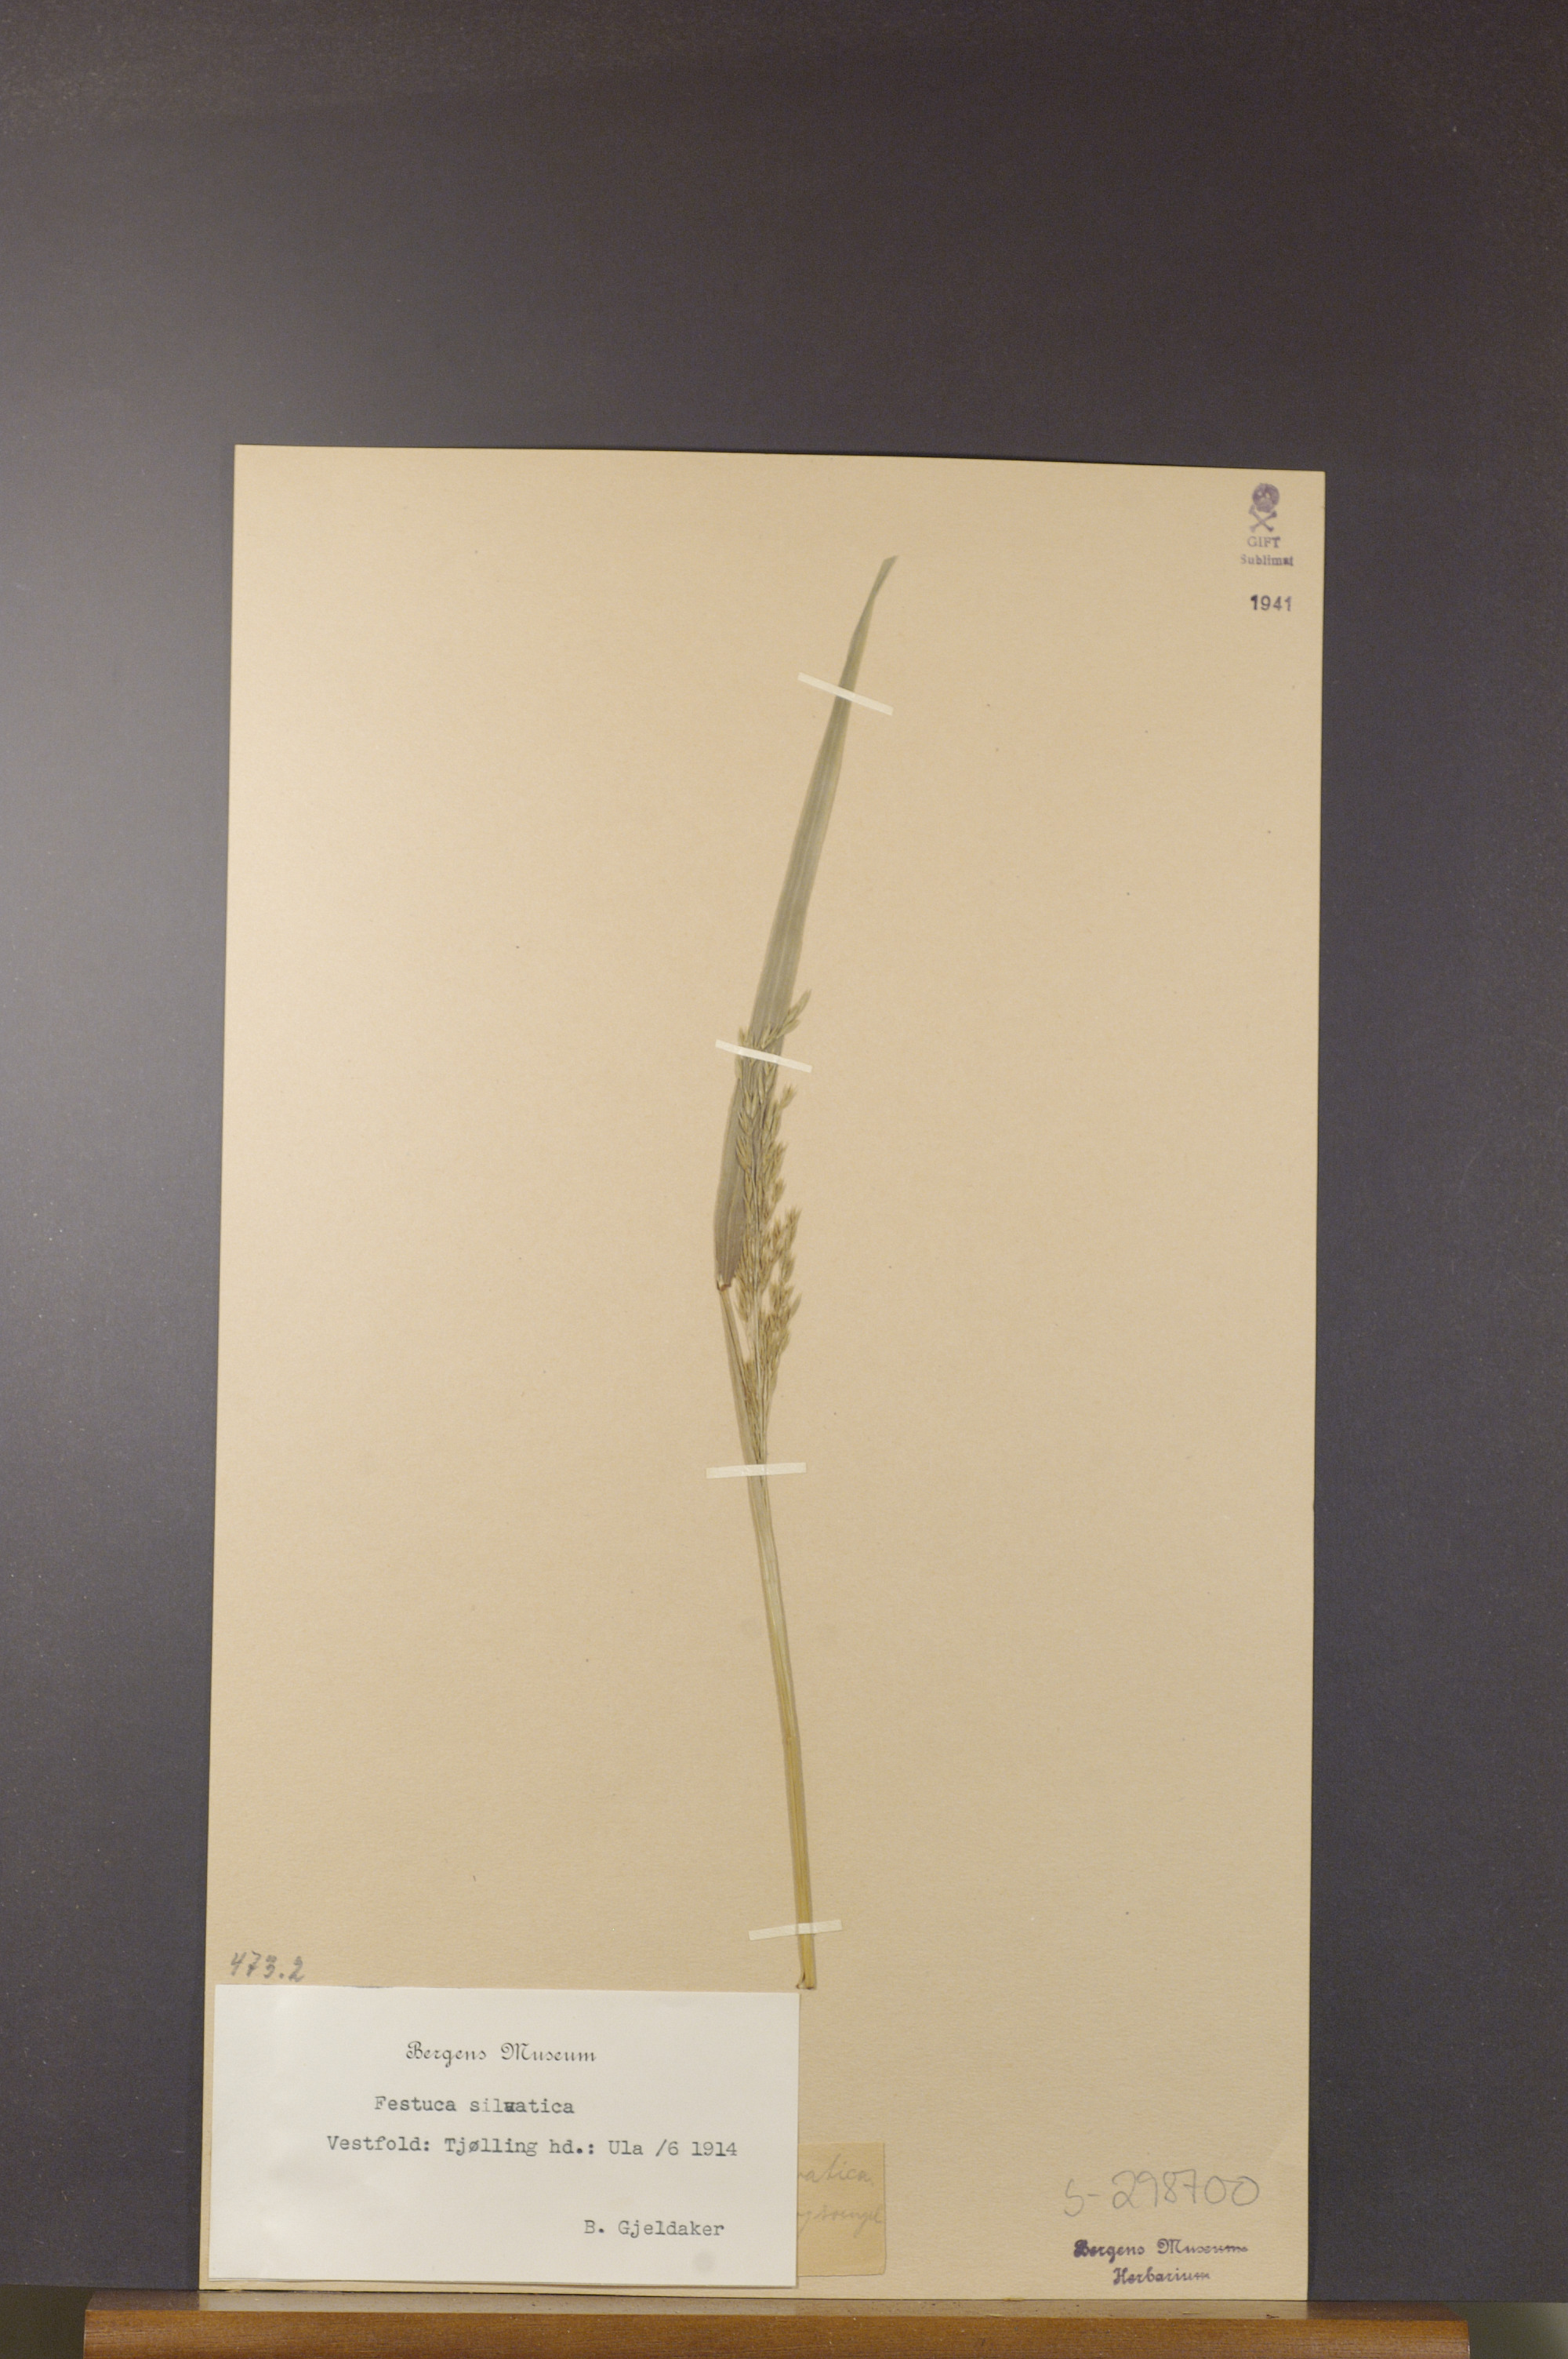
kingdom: Plantae
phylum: Tracheophyta
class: Liliopsida
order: Poales
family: Poaceae
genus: Festuca
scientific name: Festuca altissima
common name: Wood fescue
